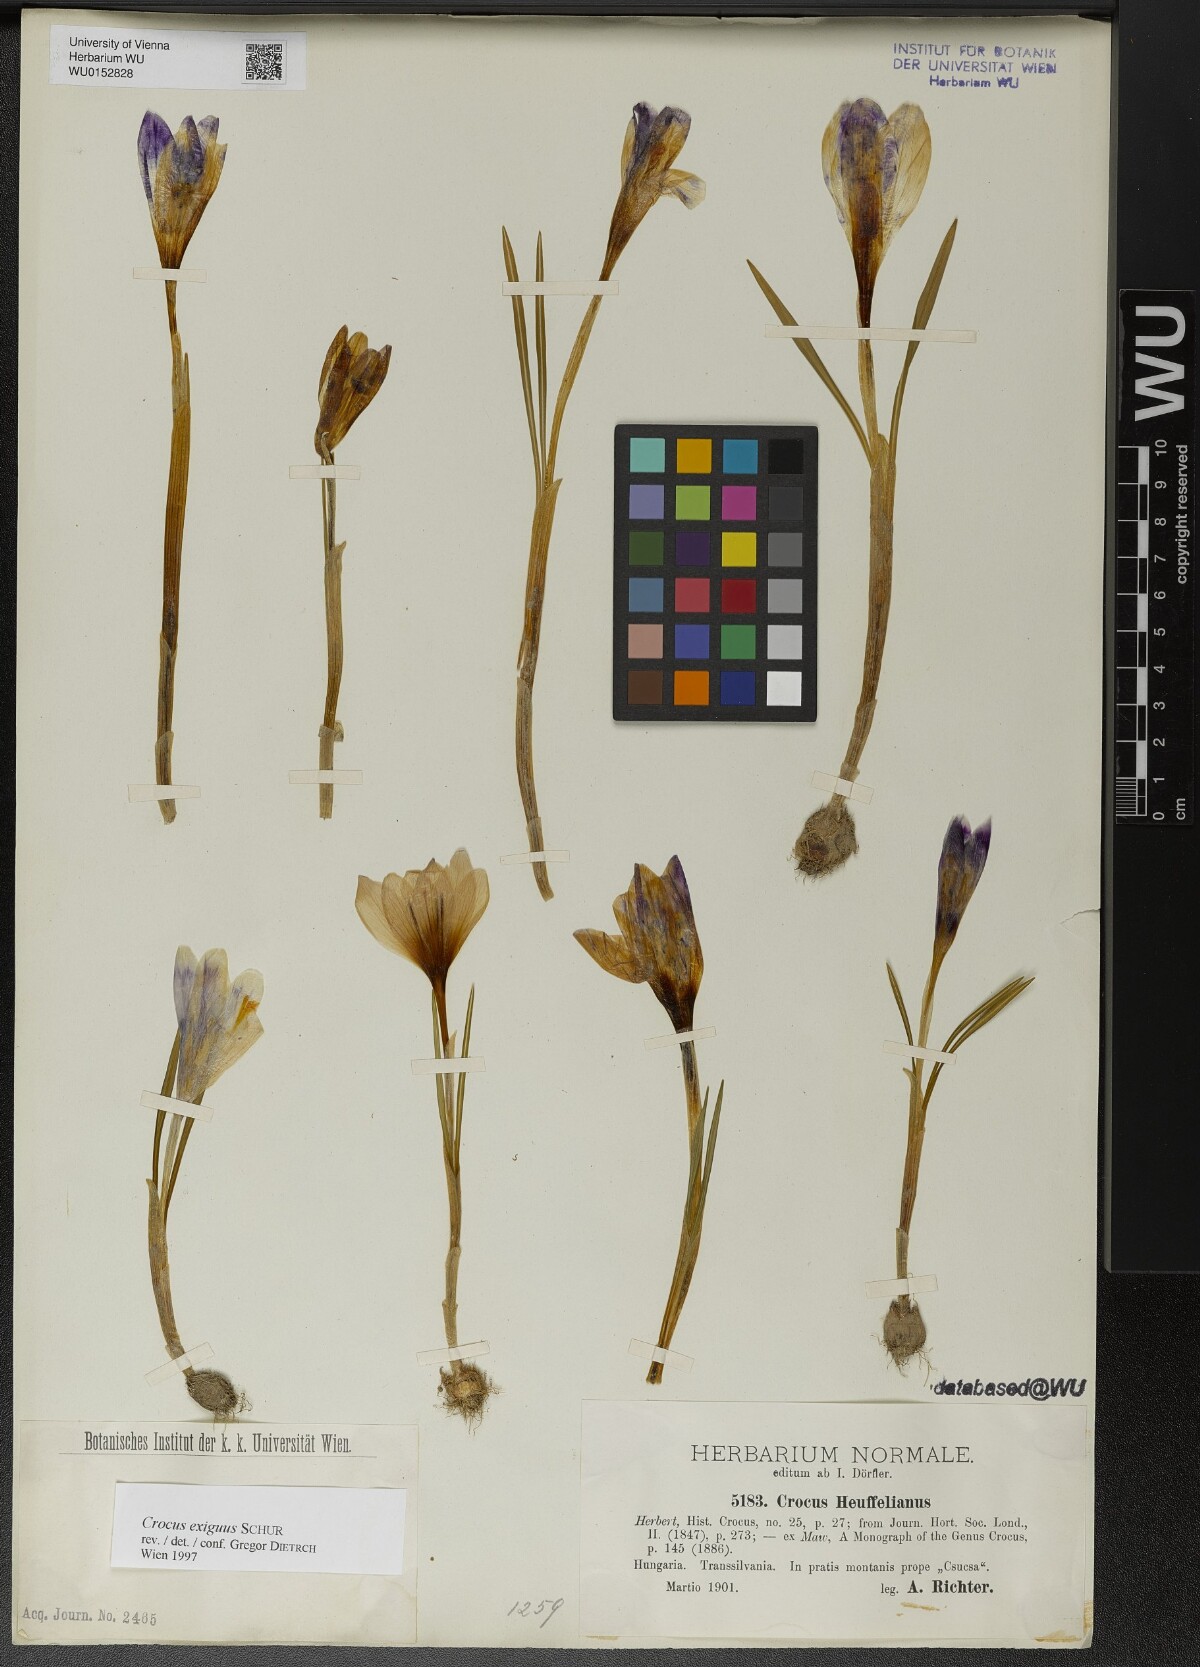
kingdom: Plantae
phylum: Tracheophyta
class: Liliopsida
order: Asparagales
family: Iridaceae
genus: Crocus
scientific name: Crocus heuffelianus
